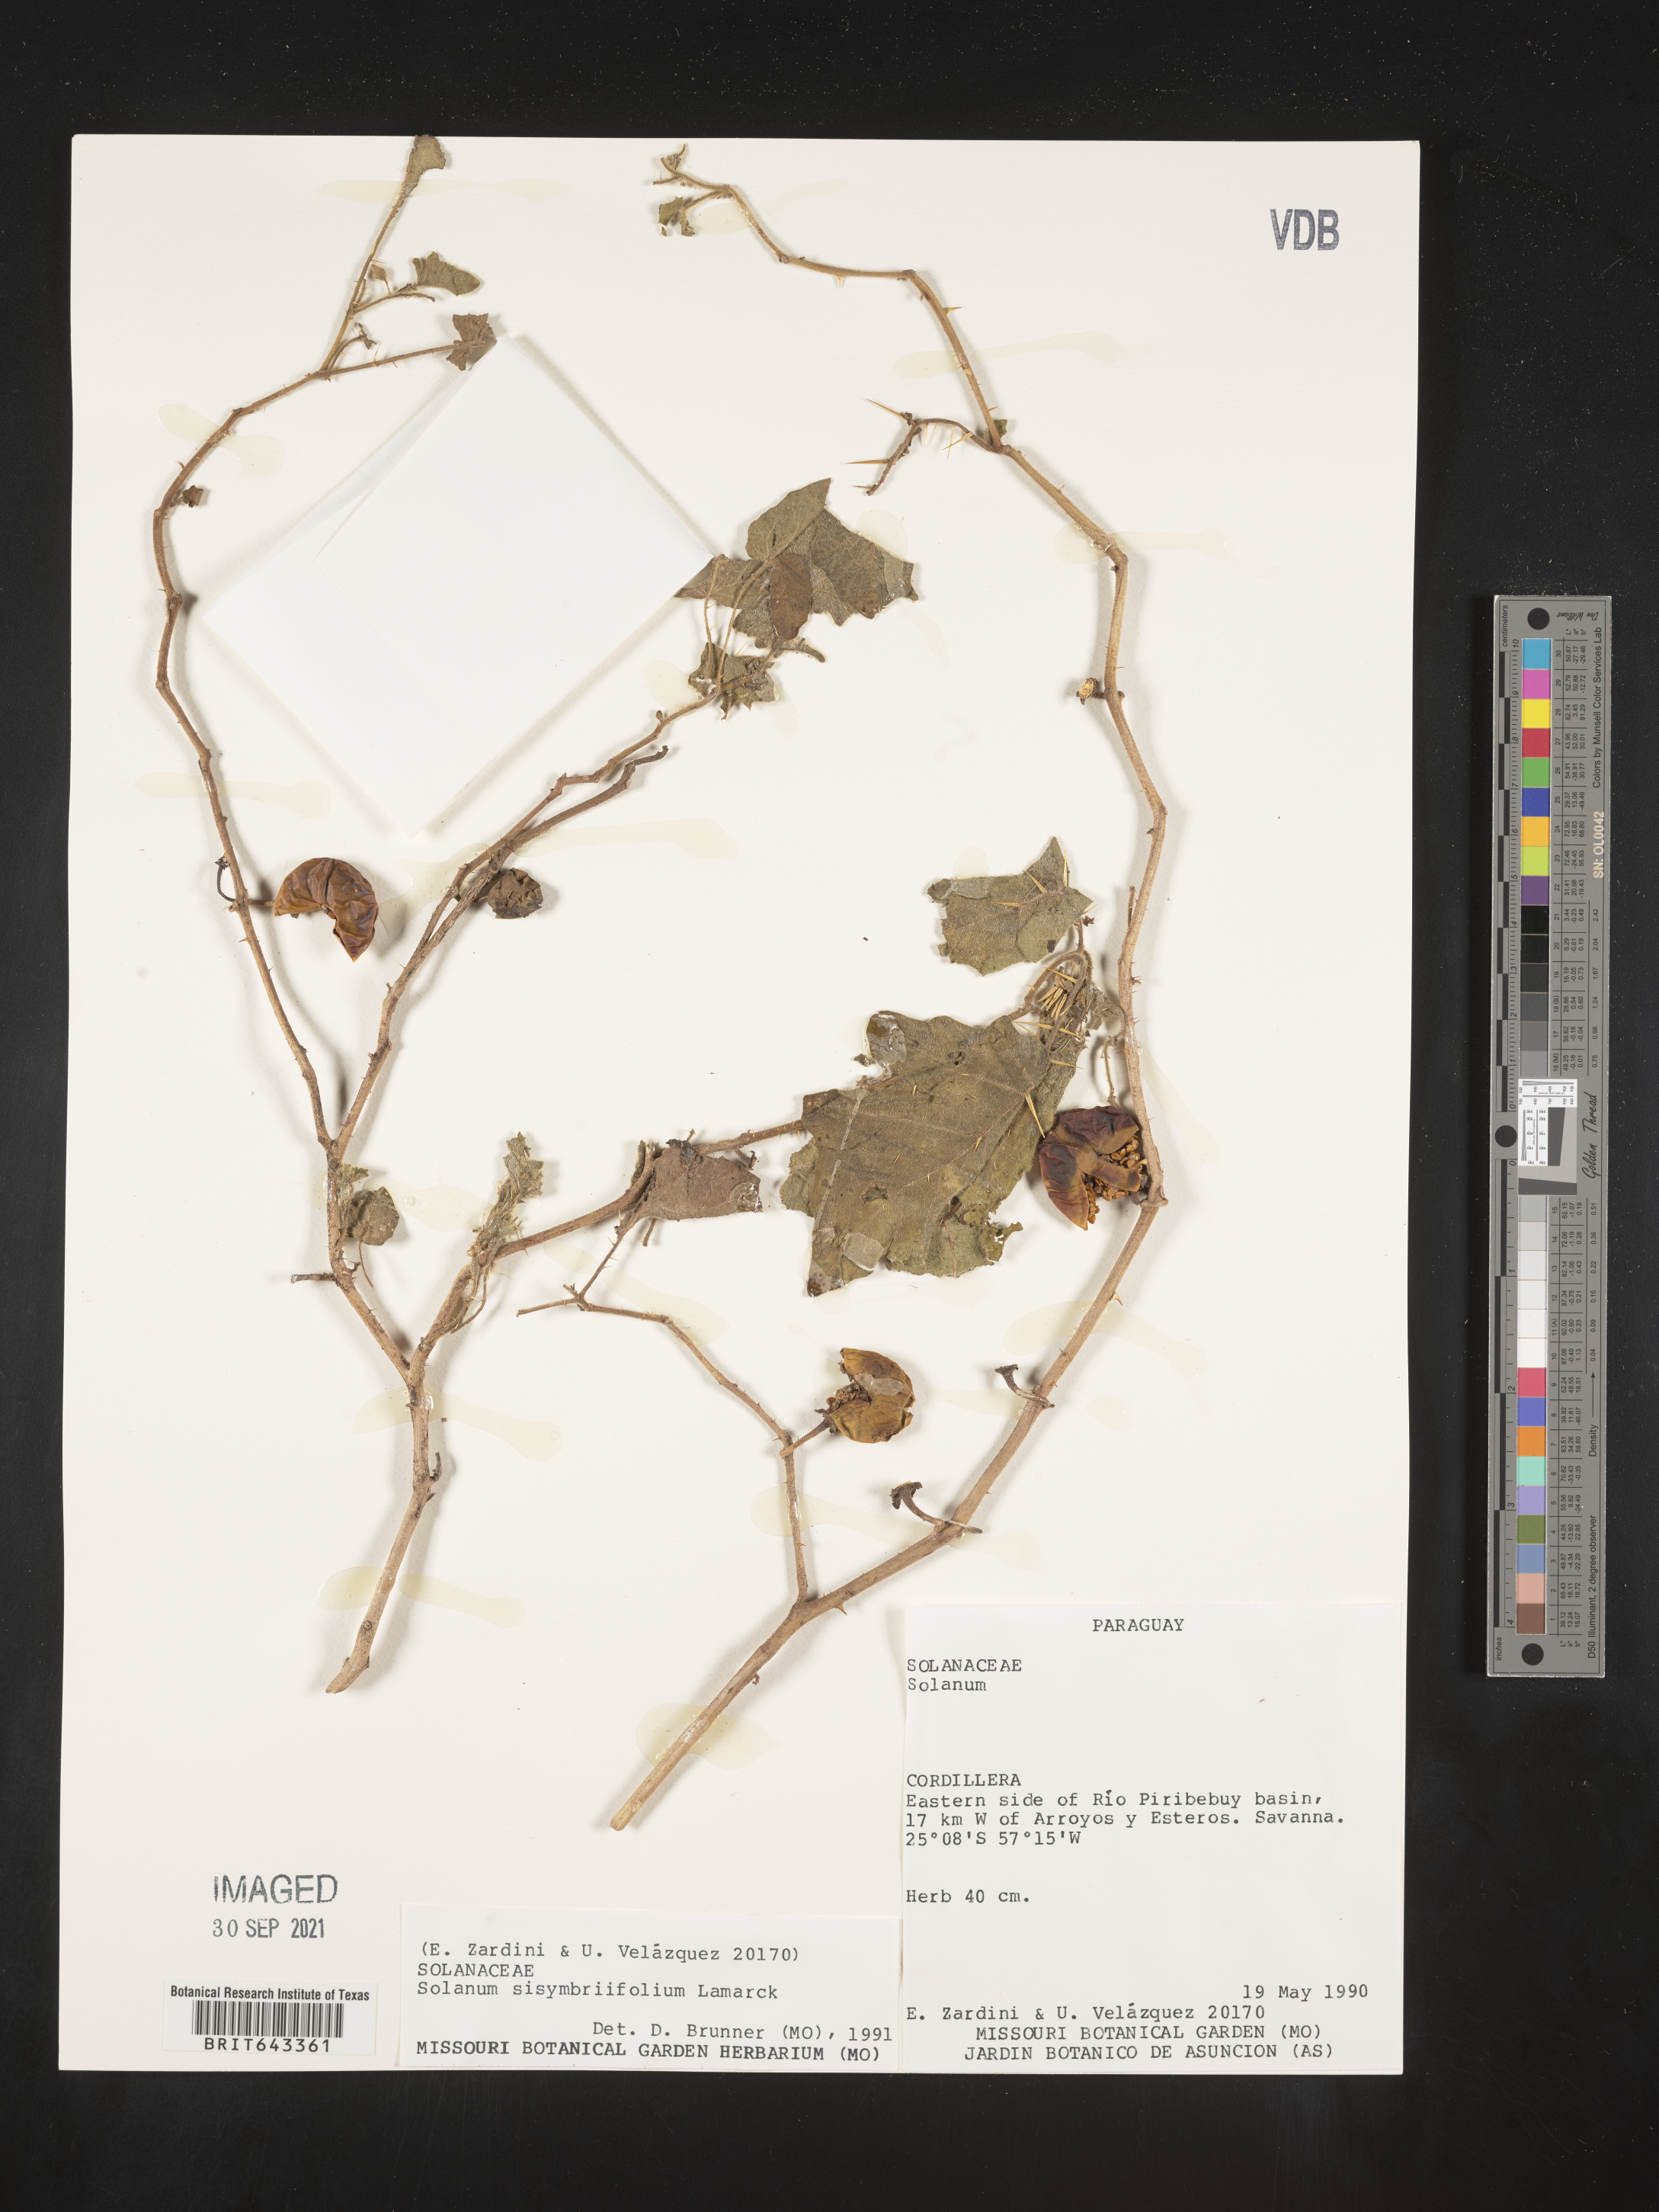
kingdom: Plantae
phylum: Tracheophyta
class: Magnoliopsida
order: Solanales
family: Solanaceae
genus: Solanum
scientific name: Solanum
